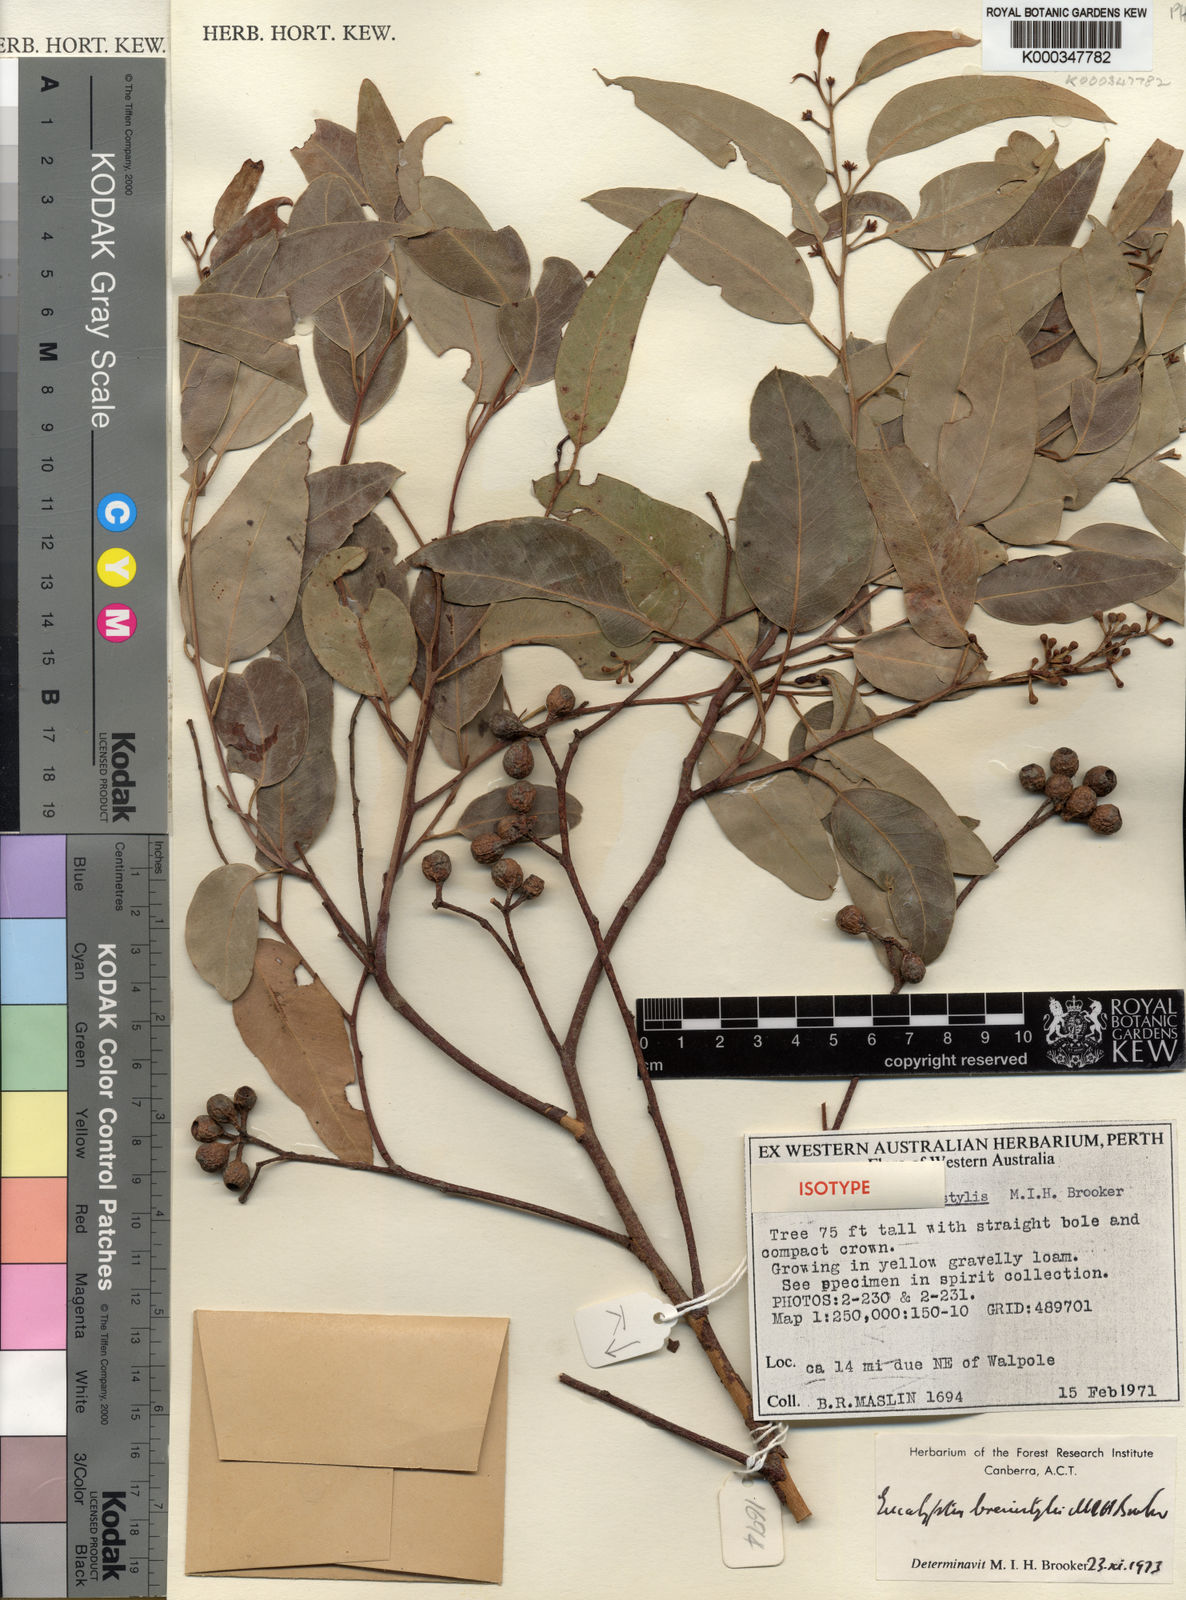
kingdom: Plantae
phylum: Tracheophyta
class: Magnoliopsida
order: Myrtales
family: Myrtaceae
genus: Eucalyptus
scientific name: Eucalyptus brevistylis
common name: Rates tingle
